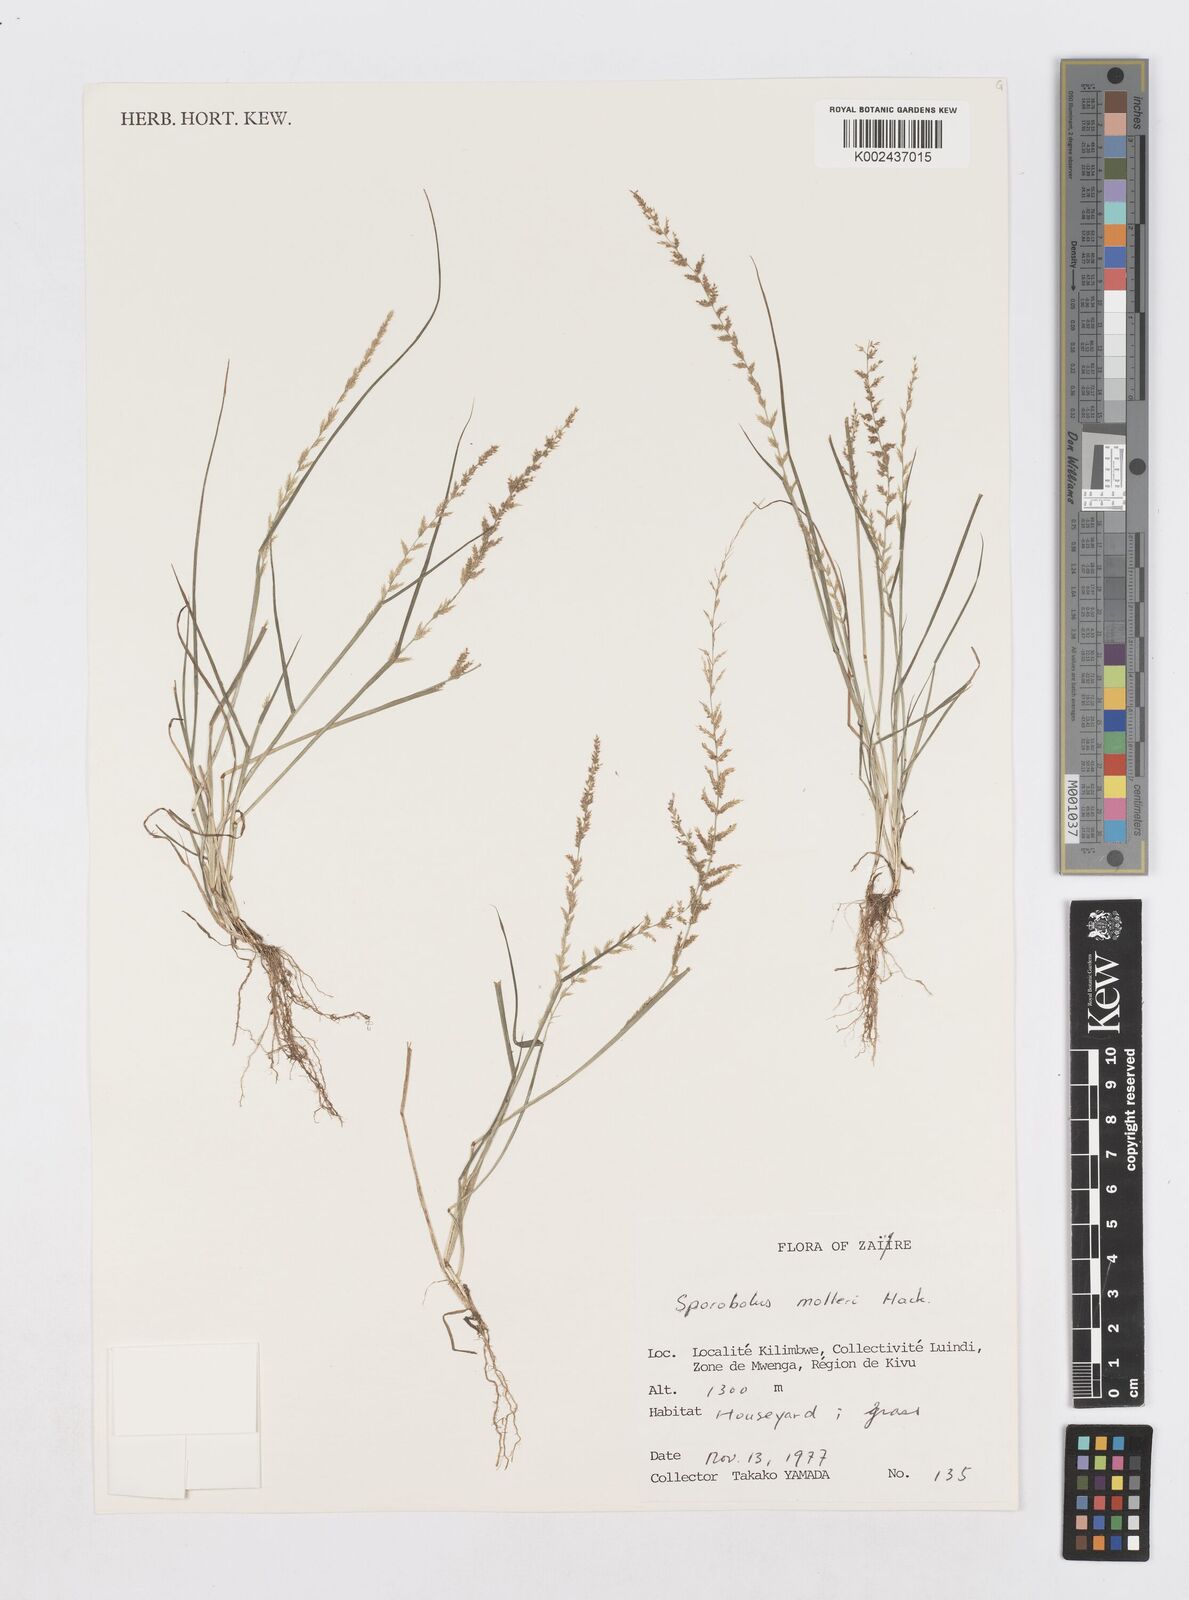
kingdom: Plantae
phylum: Tracheophyta
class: Liliopsida
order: Poales
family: Poaceae
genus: Sporobolus
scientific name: Sporobolus molleri
